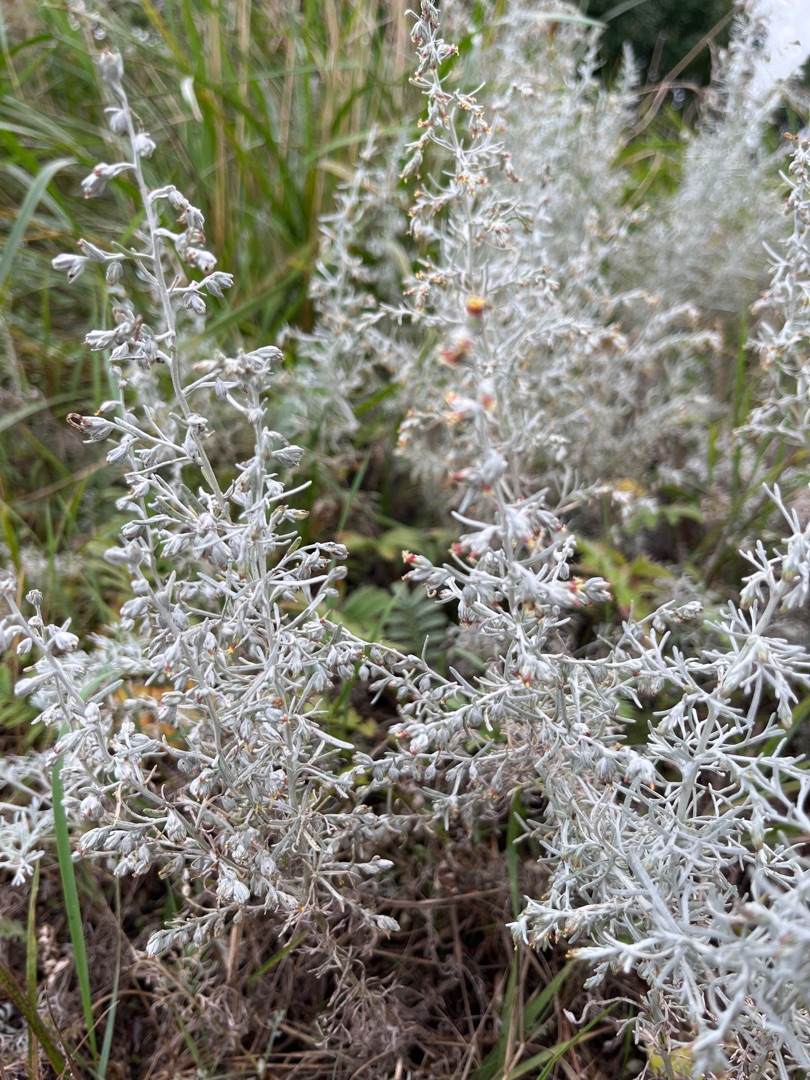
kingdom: Plantae
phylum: Tracheophyta
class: Magnoliopsida
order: Asterales
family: Asteraceae
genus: Artemisia
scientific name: Artemisia maritima
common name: Strandmalurt
